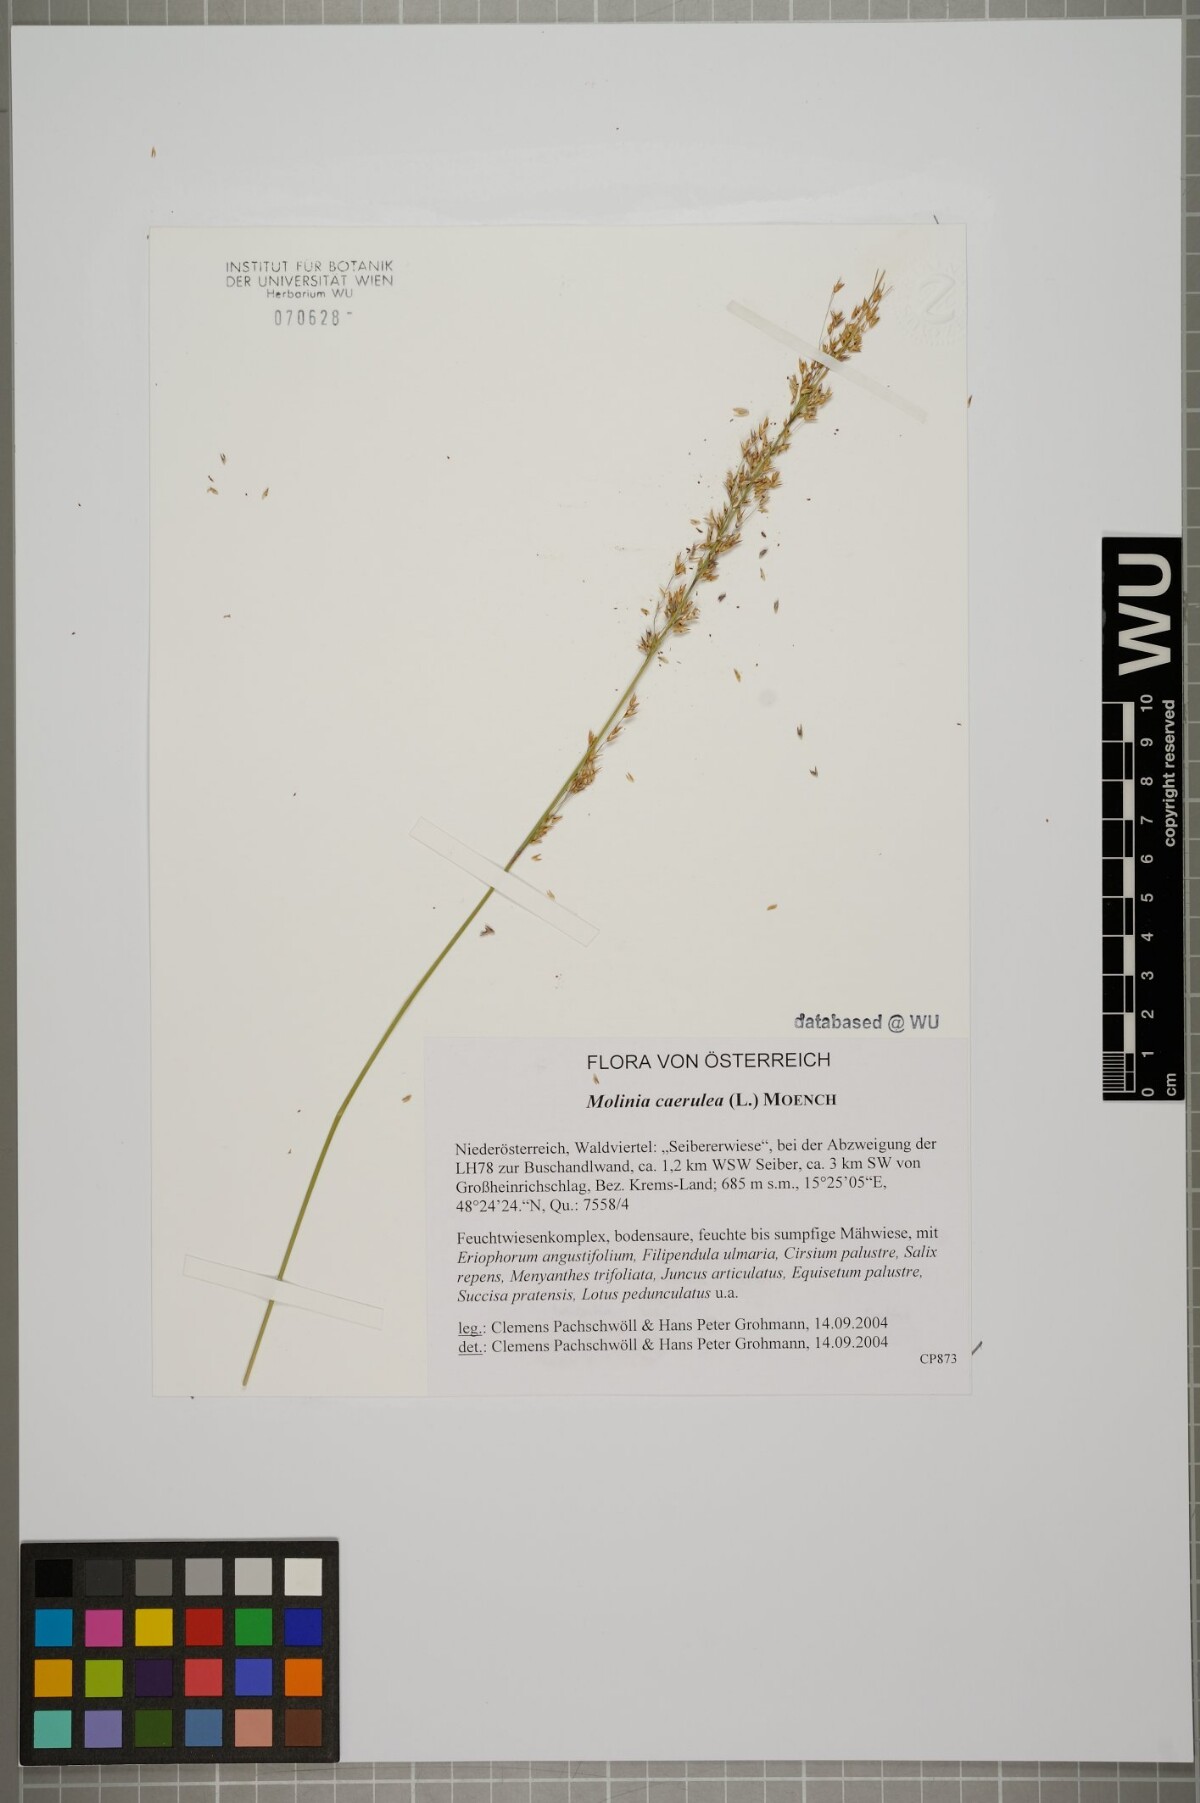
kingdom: Plantae
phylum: Tracheophyta
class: Liliopsida
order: Poales
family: Poaceae
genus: Molinia
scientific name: Molinia caerulea
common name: Purple moor-grass
